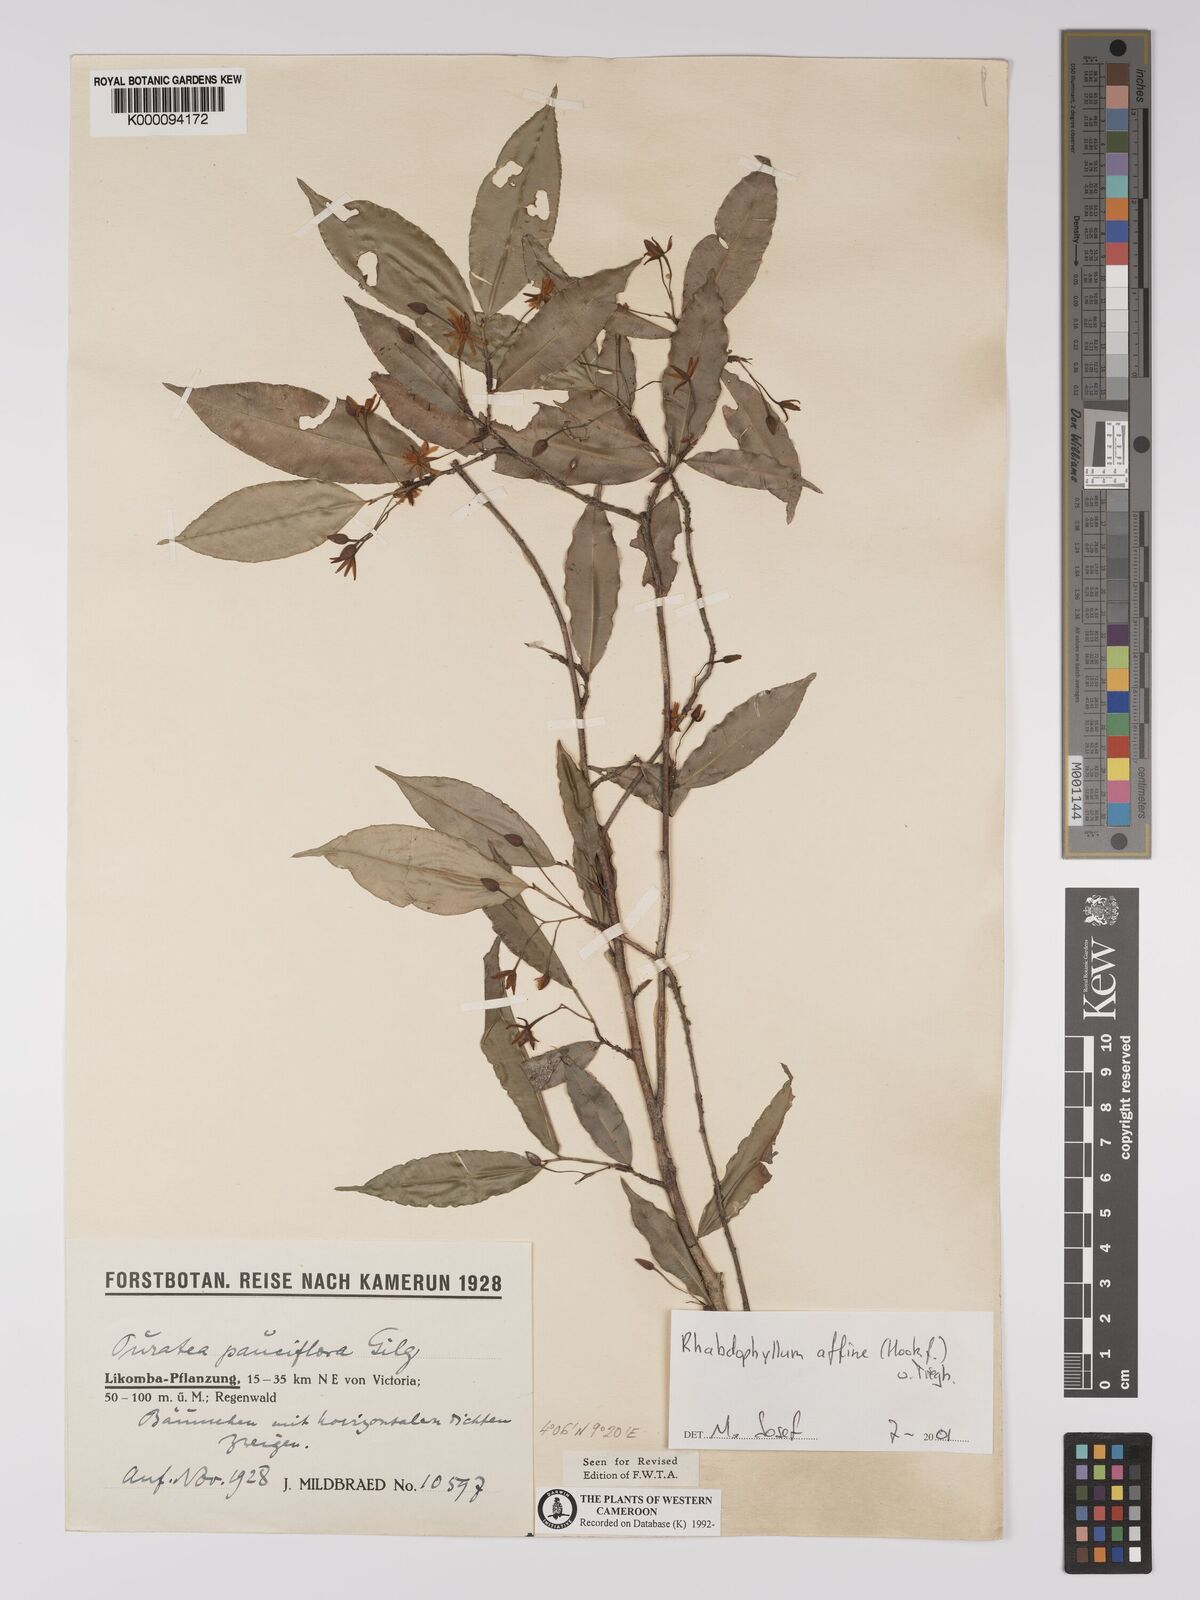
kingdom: Plantae
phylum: Tracheophyta
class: Magnoliopsida
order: Malpighiales
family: Ochnaceae
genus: Rhabdophyllum
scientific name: Rhabdophyllum affine
